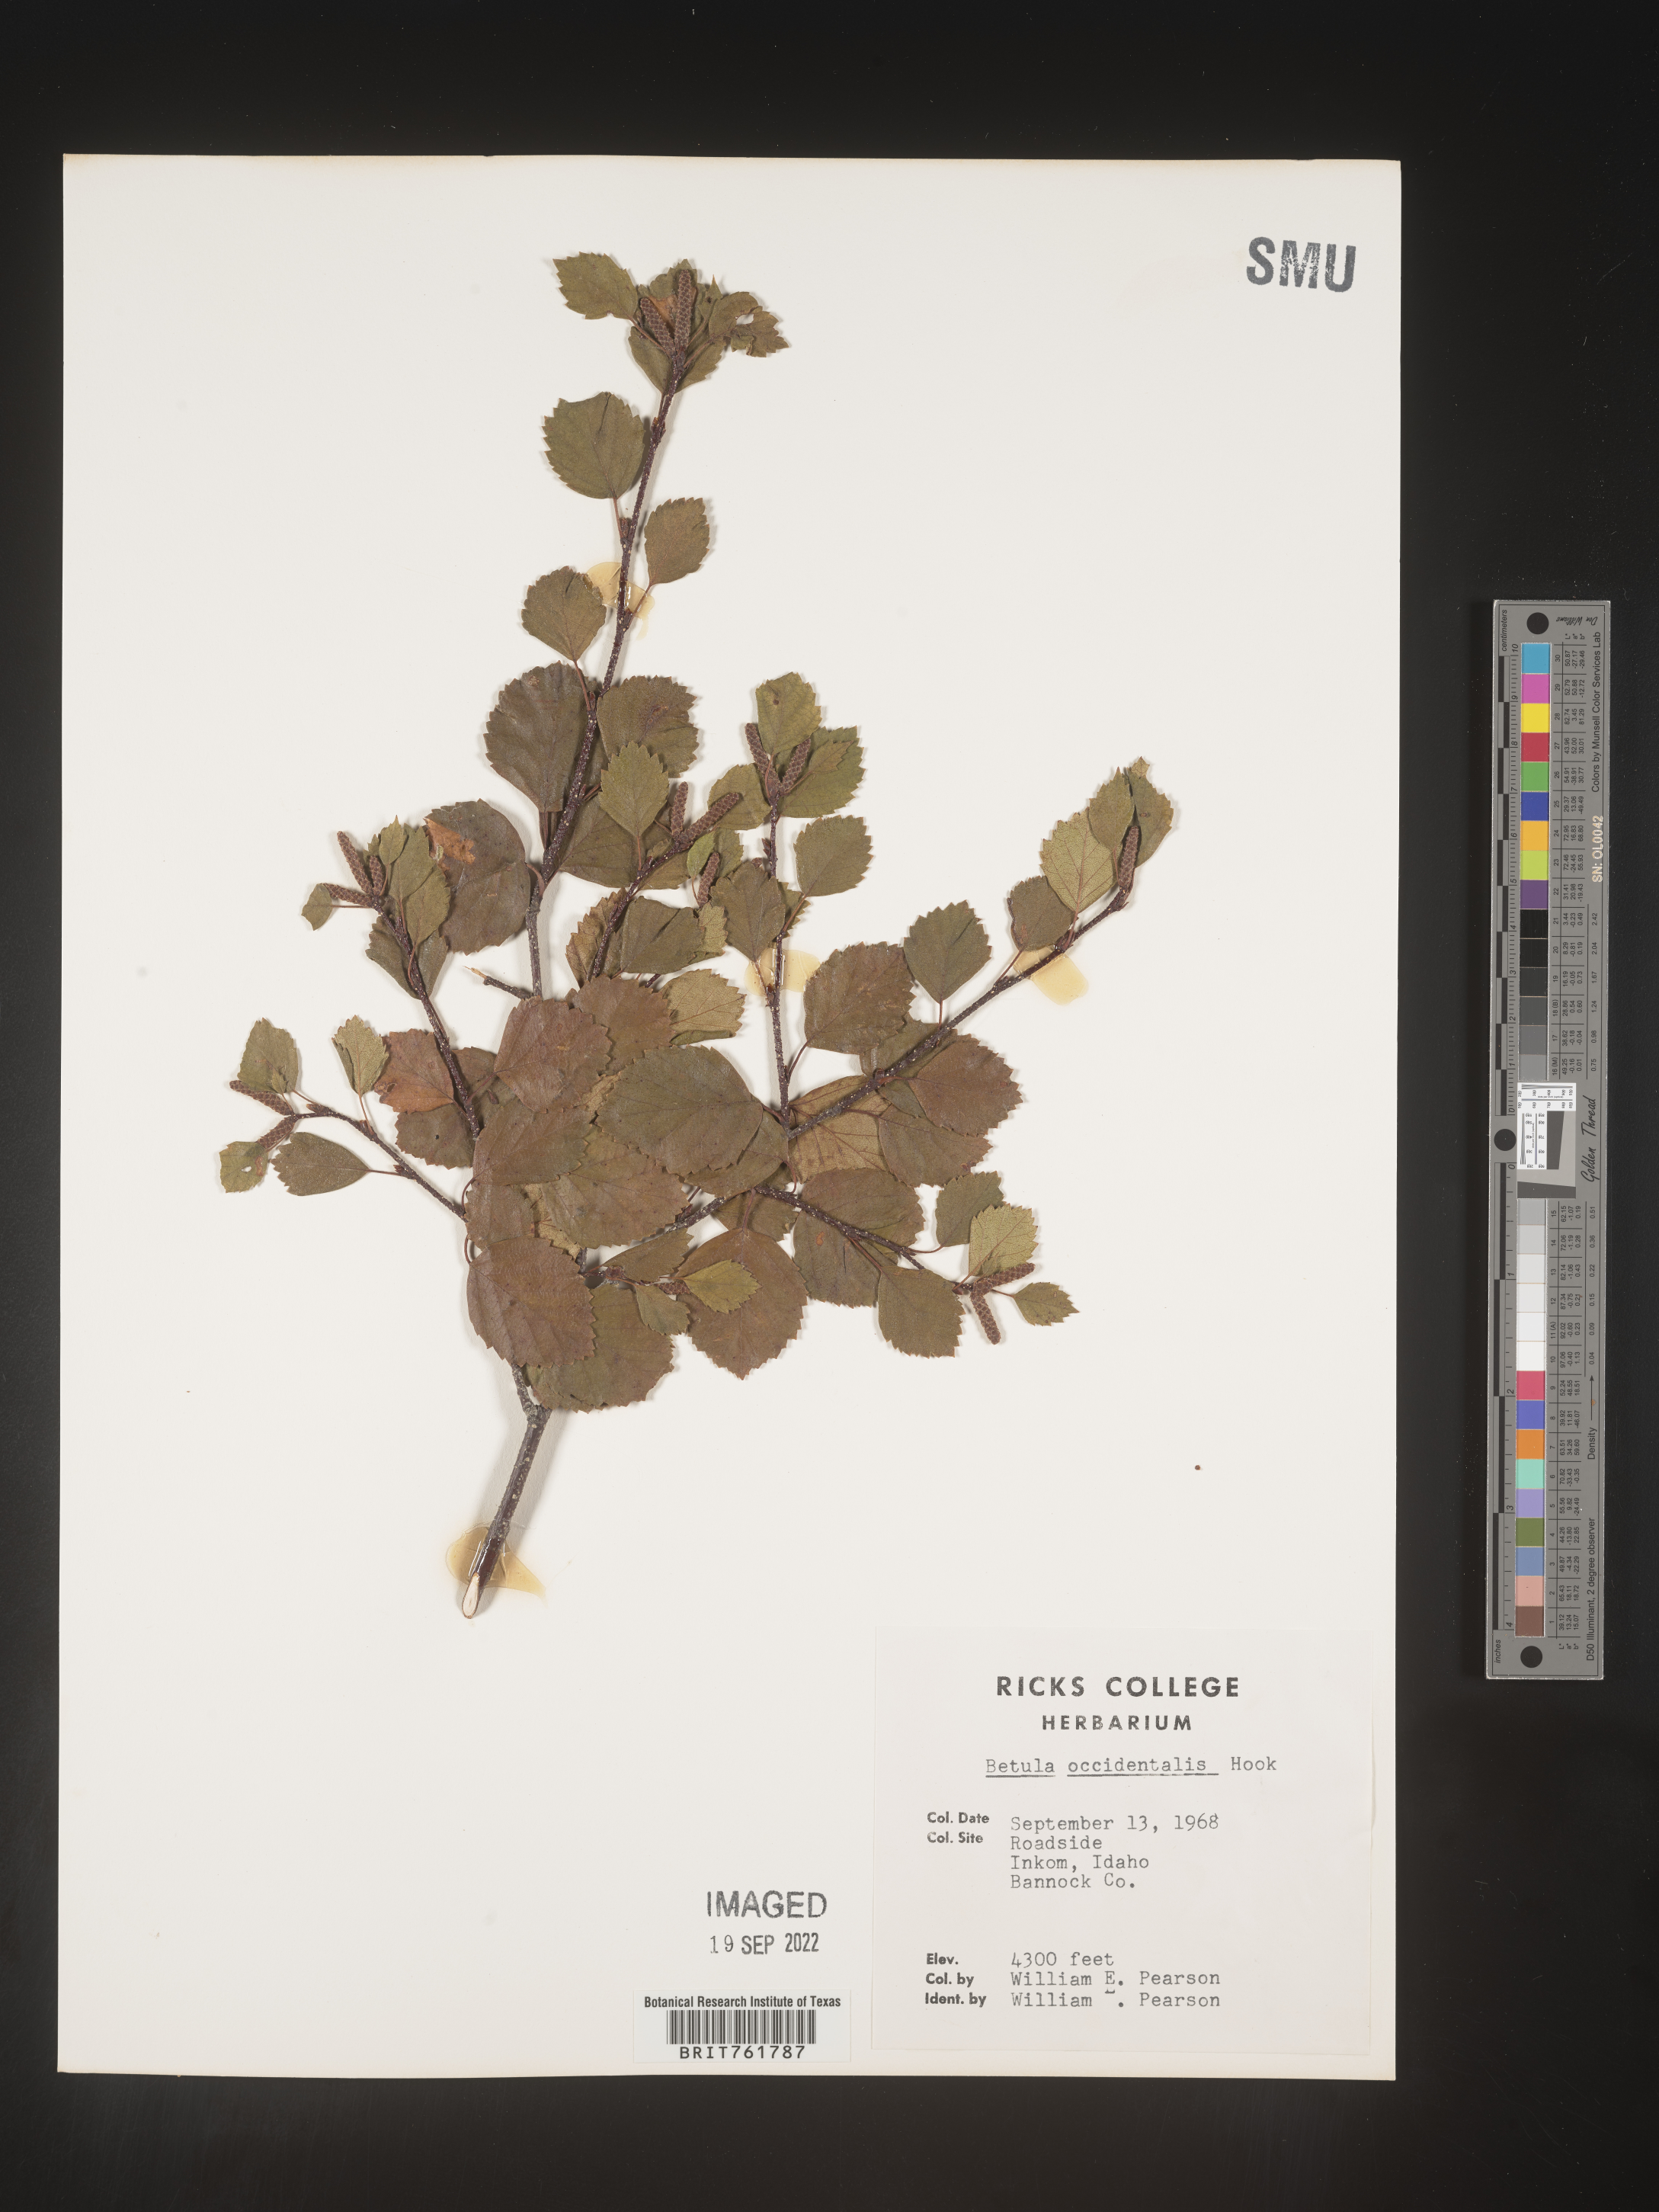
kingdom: Plantae
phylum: Tracheophyta
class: Magnoliopsida
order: Fagales
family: Betulaceae
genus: Betula
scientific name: Betula occidentalis
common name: River birch
